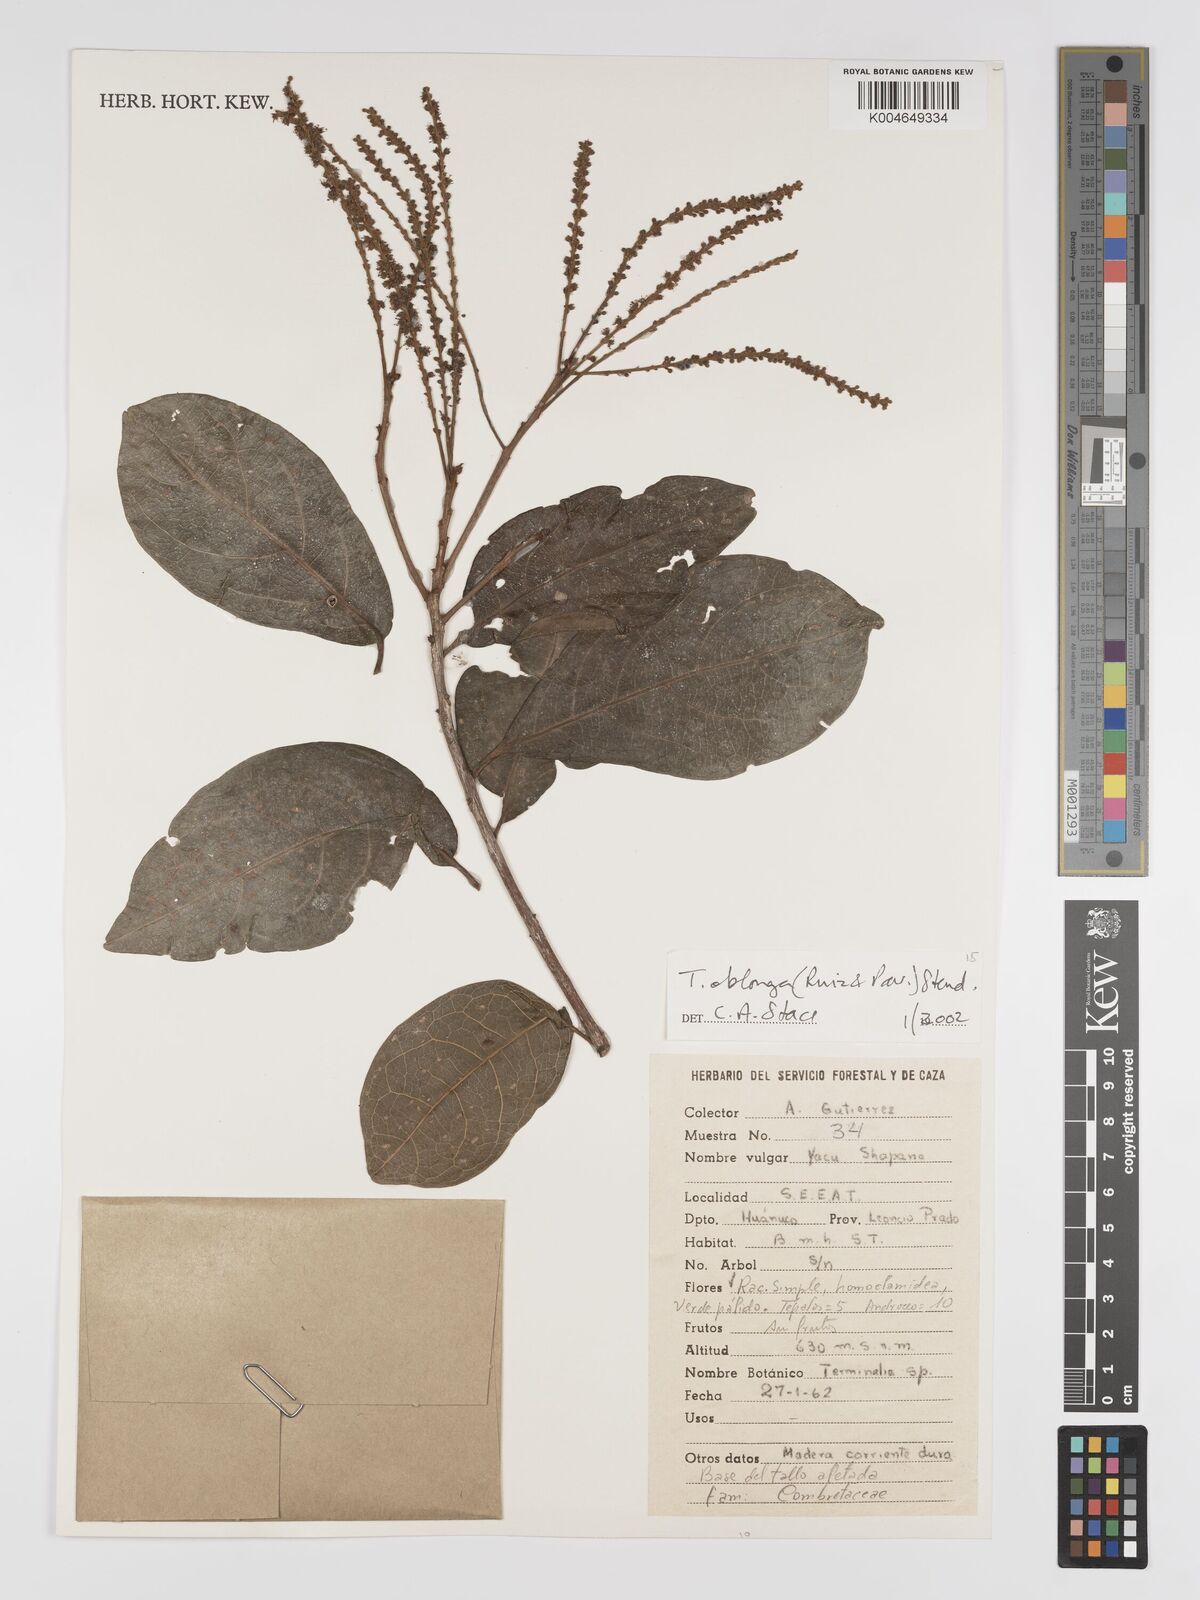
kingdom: Plantae
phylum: Tracheophyta
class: Magnoliopsida
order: Myrtales
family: Combretaceae
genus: Terminalia
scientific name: Terminalia oblonga
